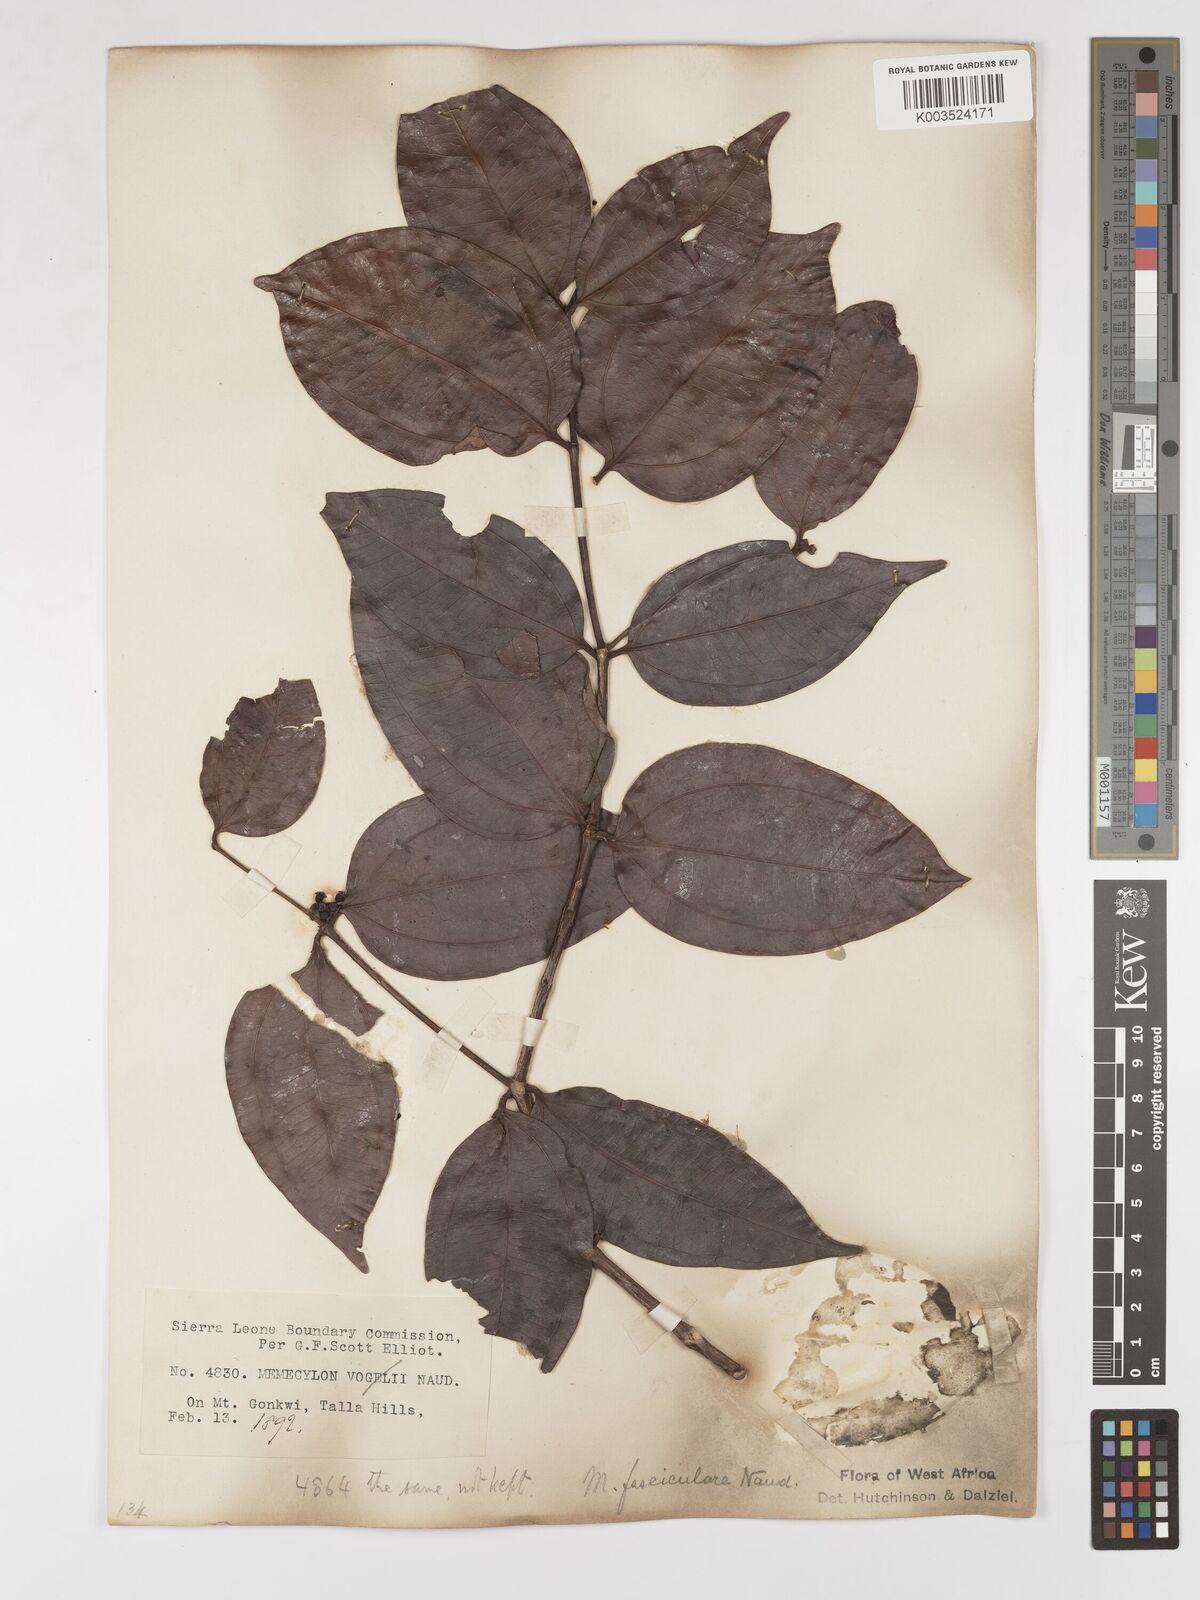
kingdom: Plantae
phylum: Tracheophyta
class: Magnoliopsida
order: Myrtales
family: Melastomataceae
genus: Warneckea
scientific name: Warneckea fascicularis
